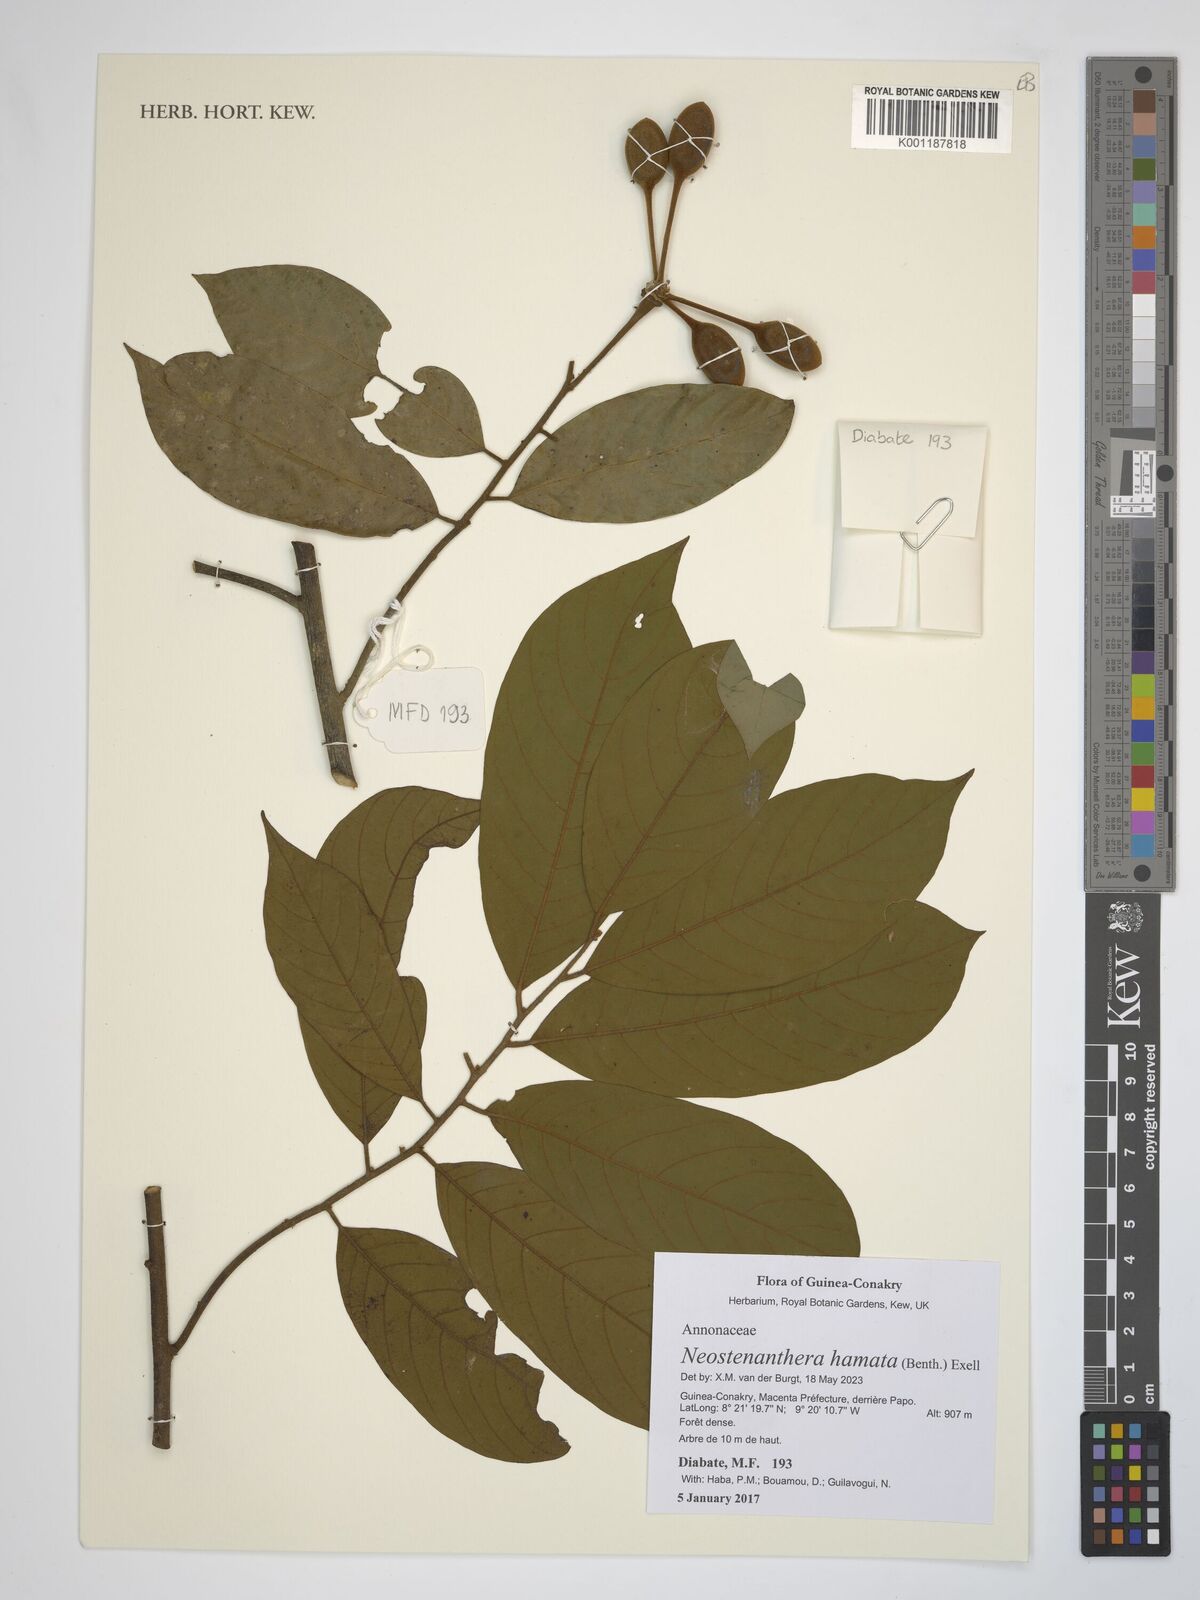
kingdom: Plantae
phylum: Tracheophyta
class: Magnoliopsida
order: Magnoliales
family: Annonaceae
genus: Neostenanthera
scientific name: Neostenanthera hamata
